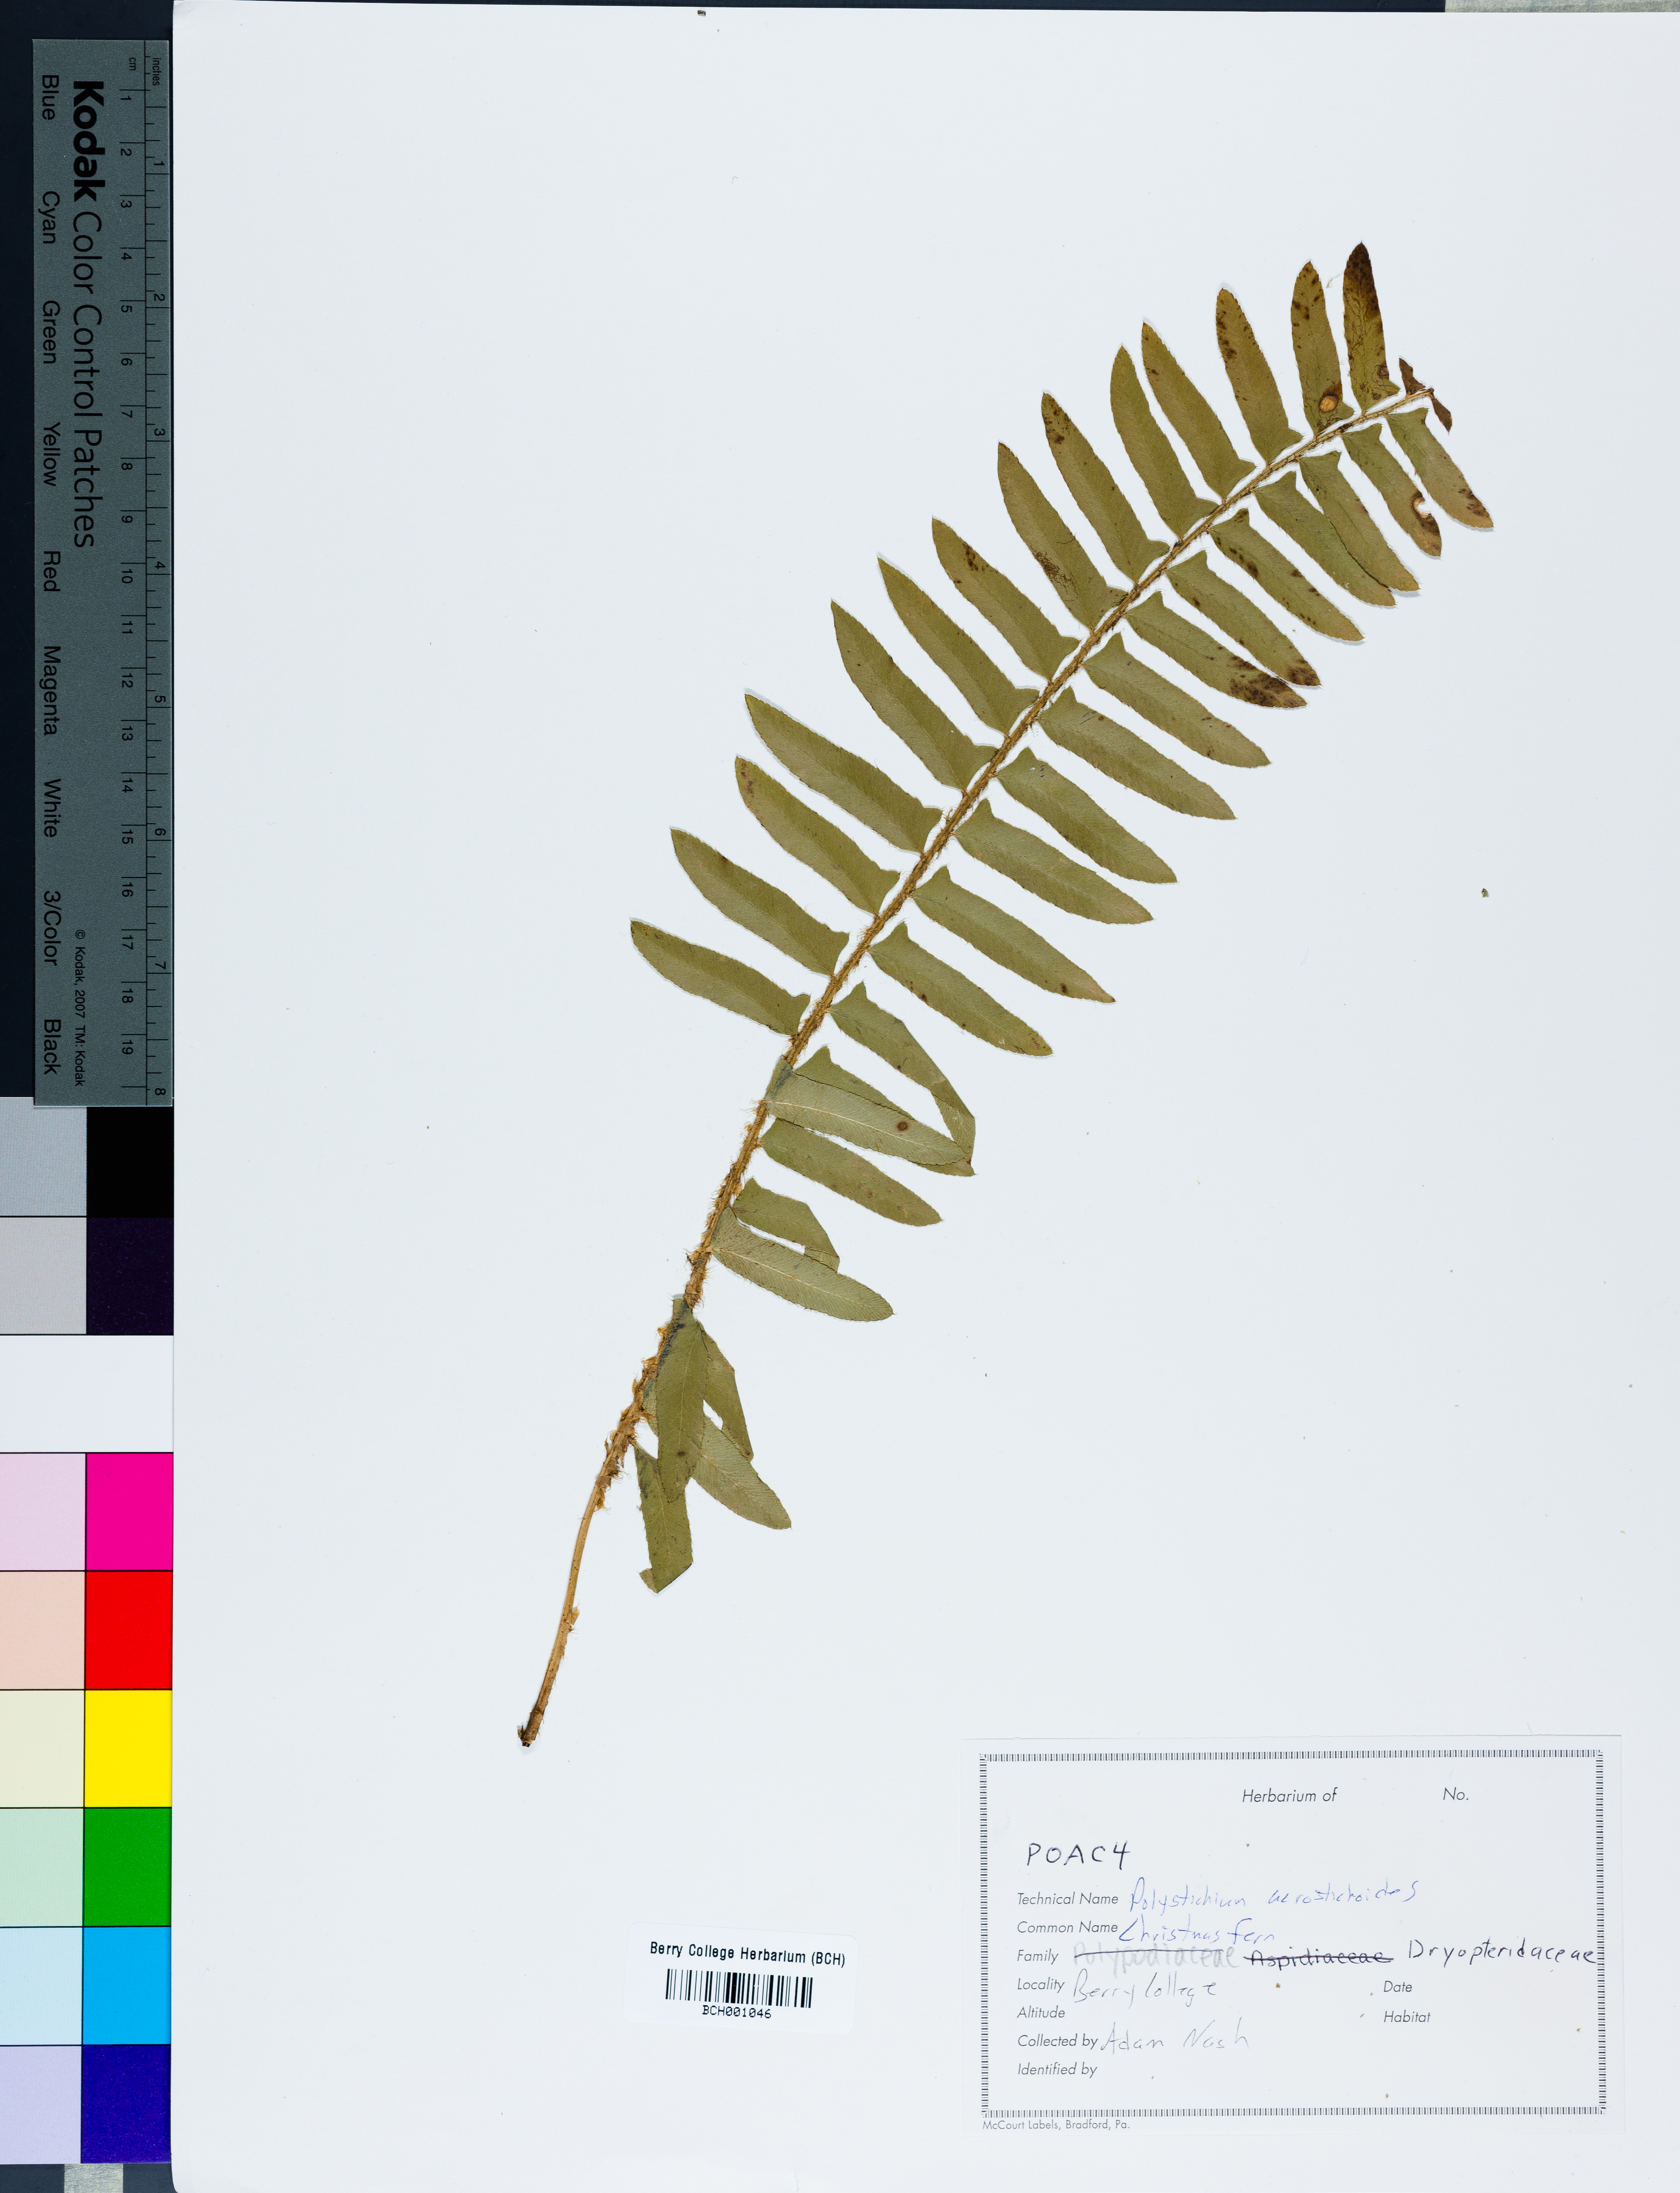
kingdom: Plantae
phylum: Tracheophyta
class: Polypodiopsida
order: Polypodiales
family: Dryopteridaceae
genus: Polystichum
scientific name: Polystichum acrostichoides
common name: Christmas fern
